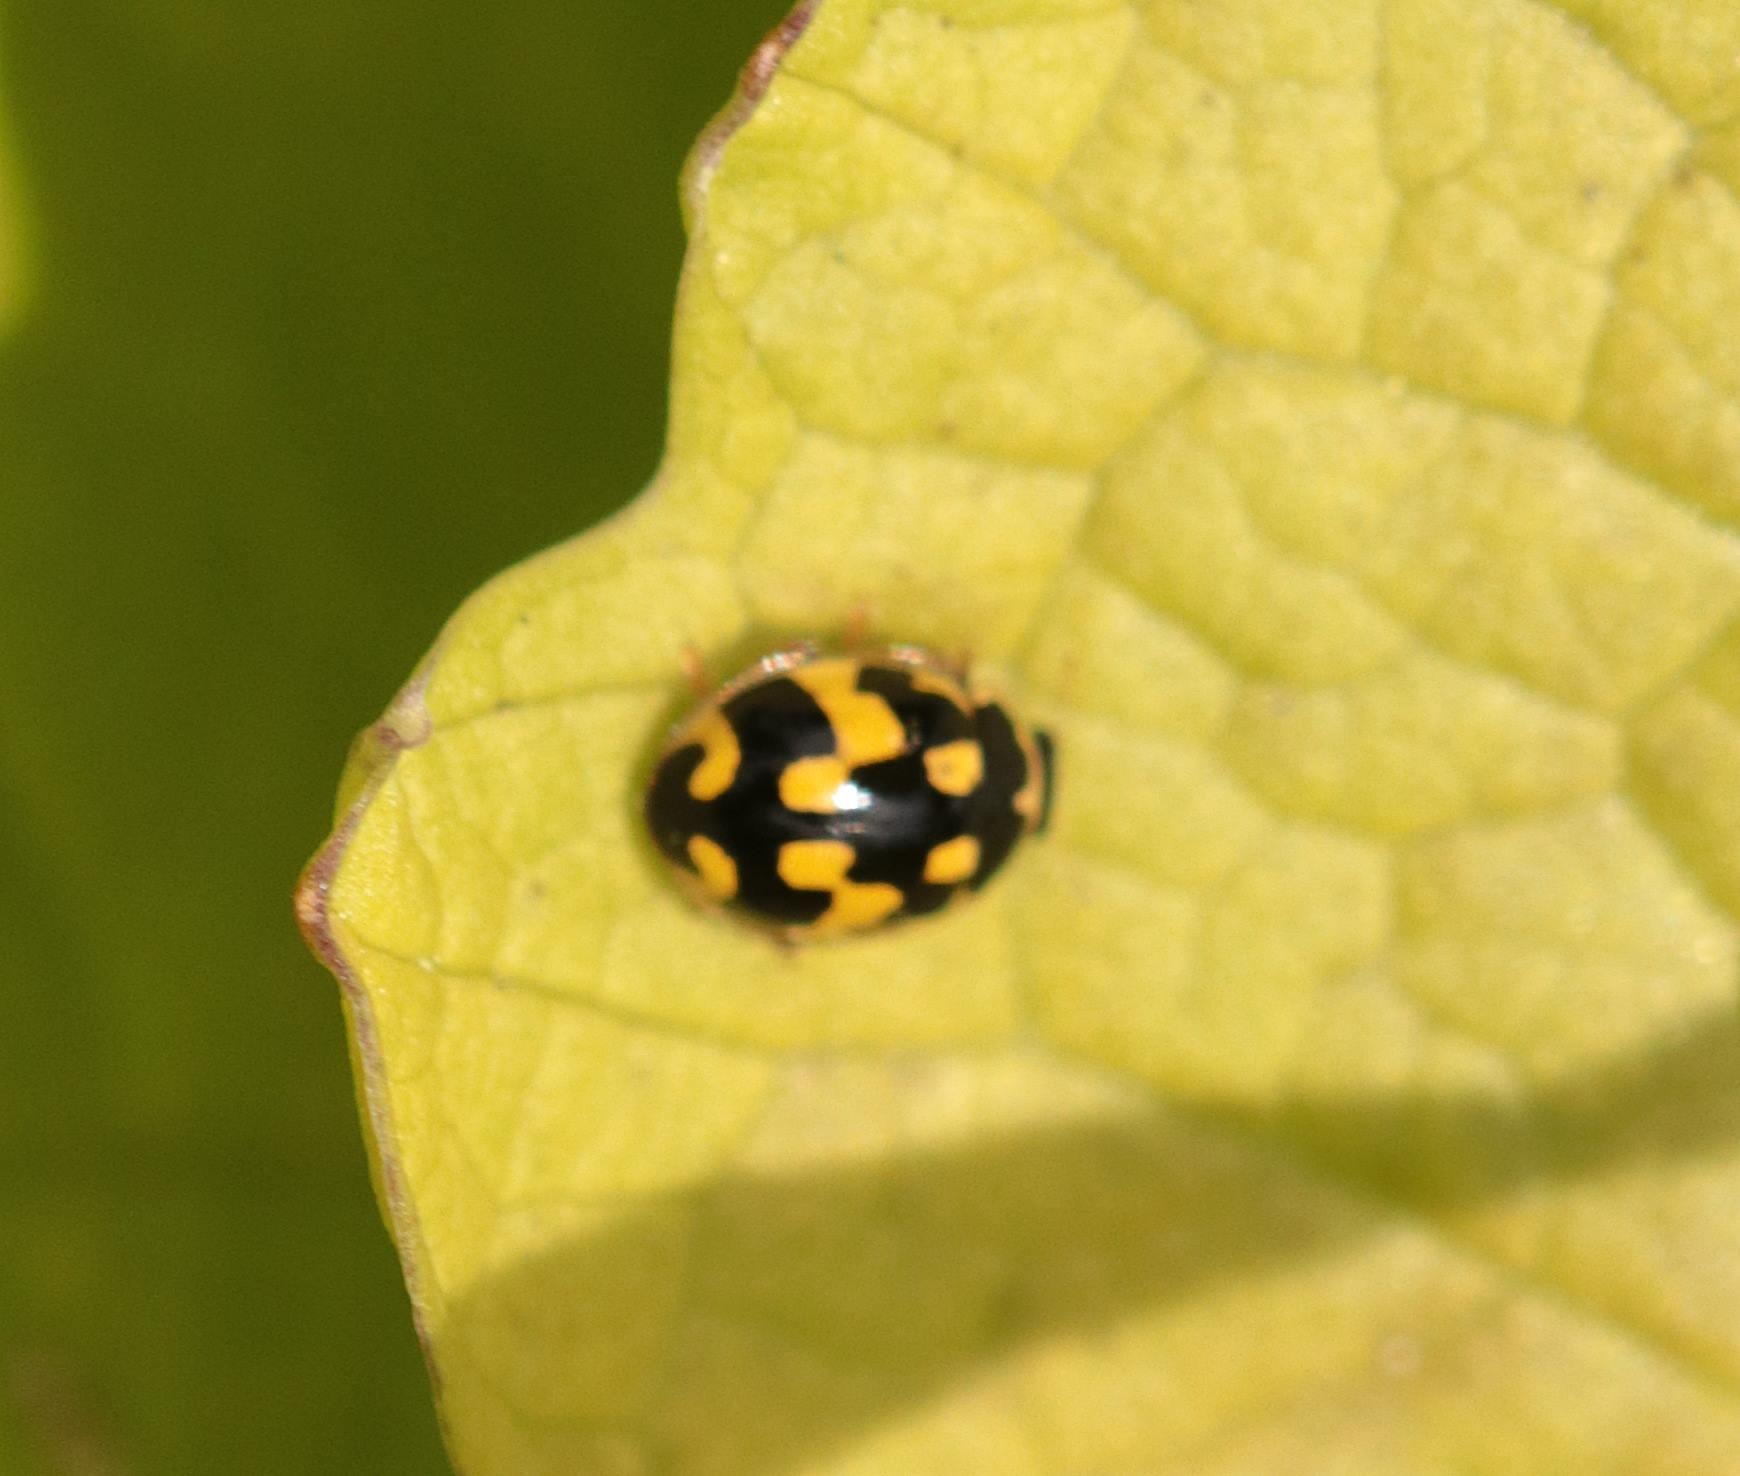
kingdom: Animalia
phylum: Arthropoda
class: Insecta
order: Coleoptera
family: Coccinellidae
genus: Propylaea
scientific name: Propylaea quatuordecimpunctata
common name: Skakbræt
